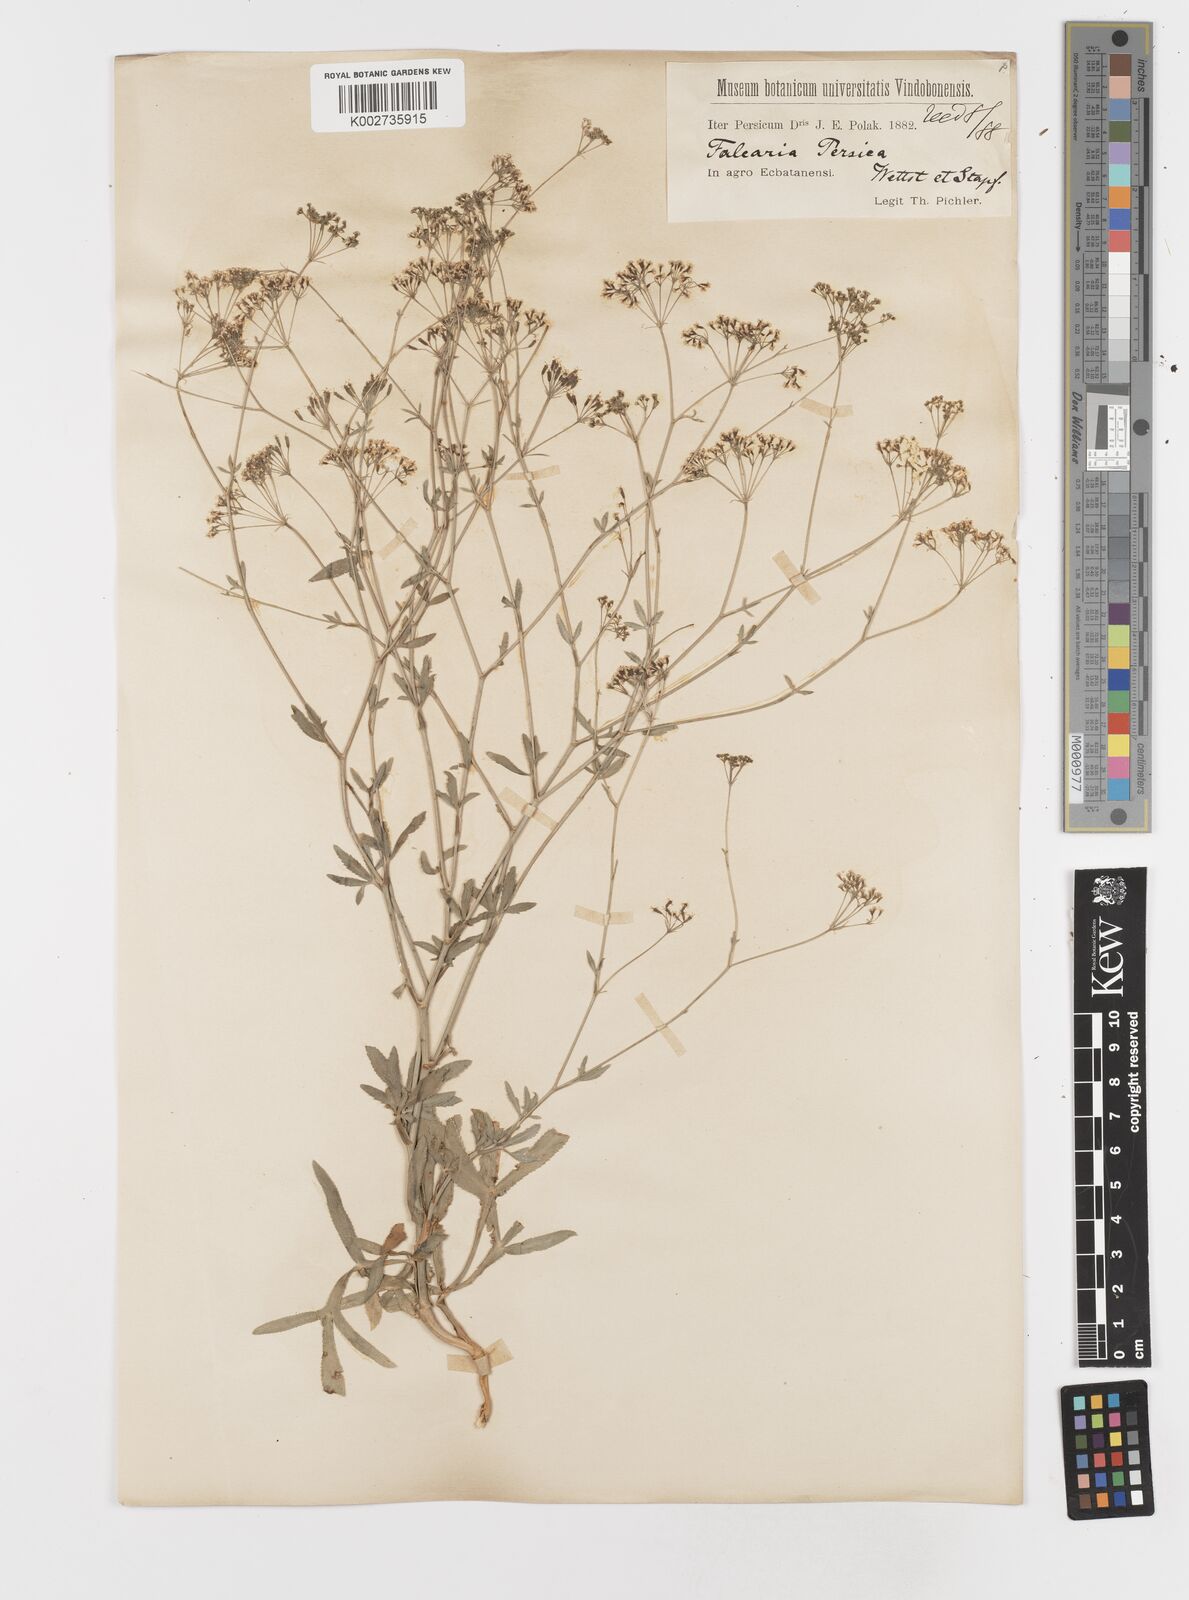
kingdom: Plantae
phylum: Tracheophyta
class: Magnoliopsida
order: Apiales
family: Apiaceae
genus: Falcaria
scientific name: Falcaria vulgaris
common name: Longleaf
